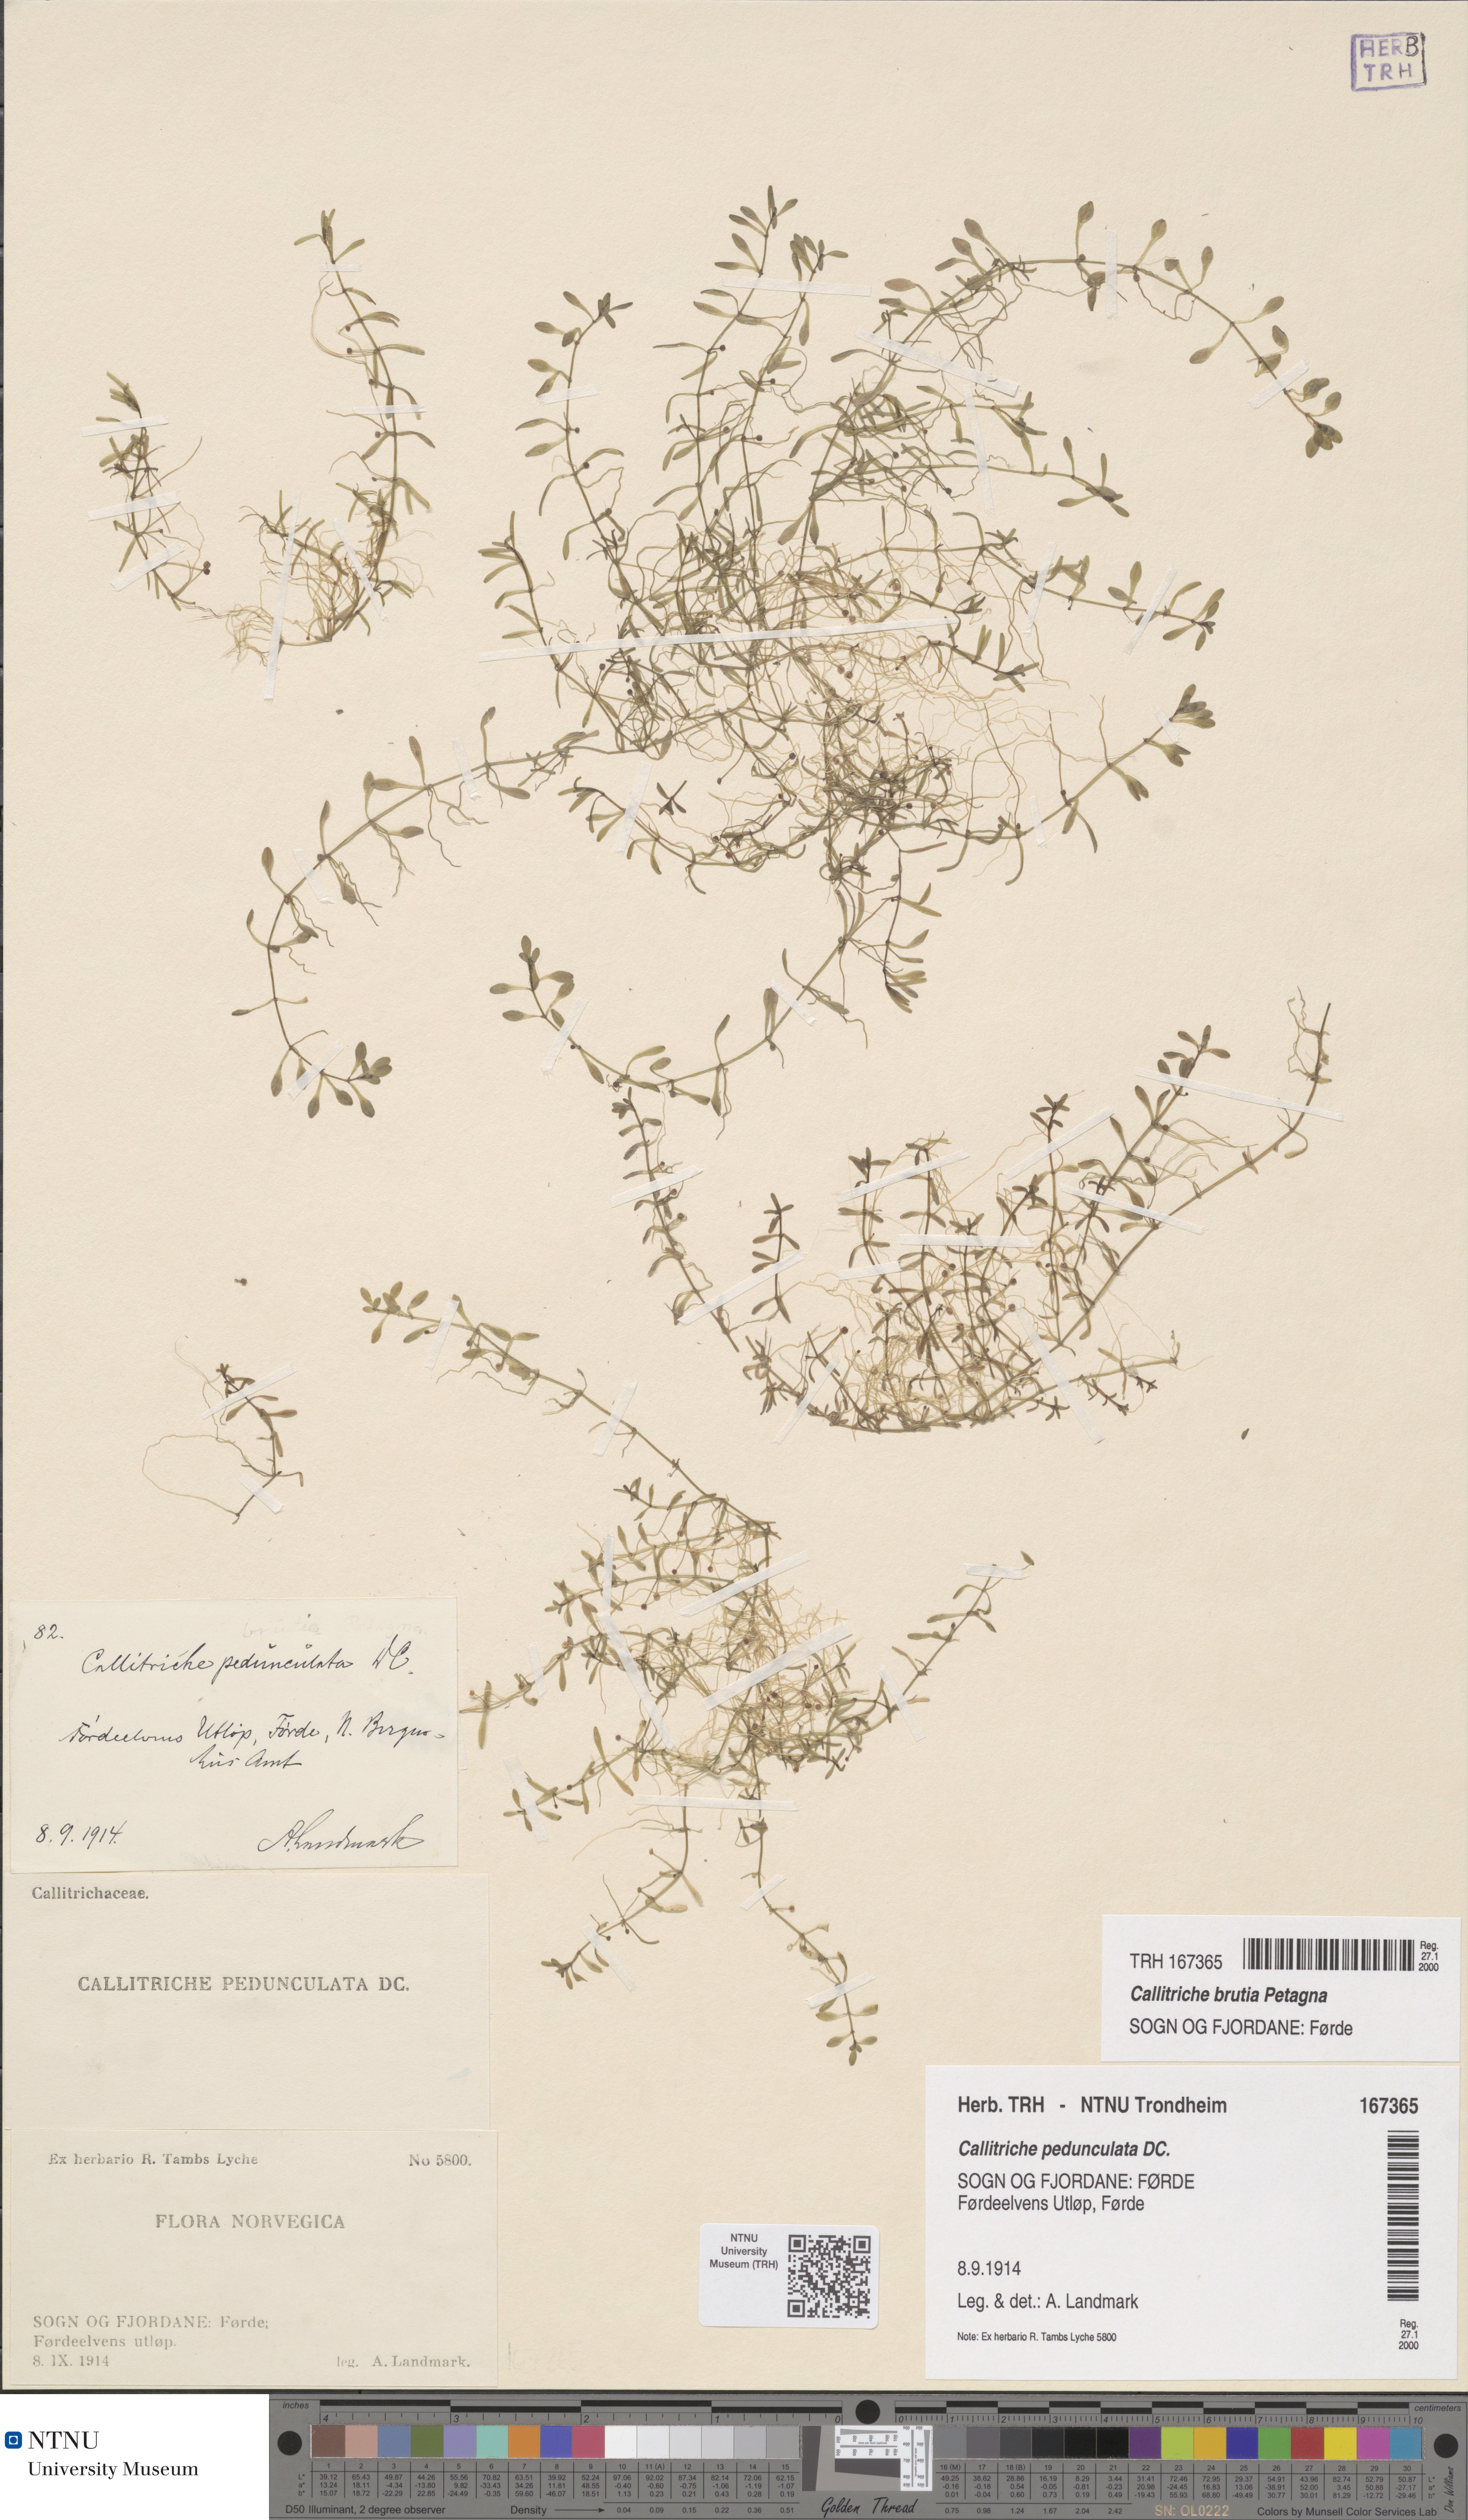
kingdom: Plantae
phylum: Tracheophyta
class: Magnoliopsida
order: Lamiales
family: Plantaginaceae
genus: Callitriche
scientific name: Callitriche brutia
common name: Pedunculate water-starwort
